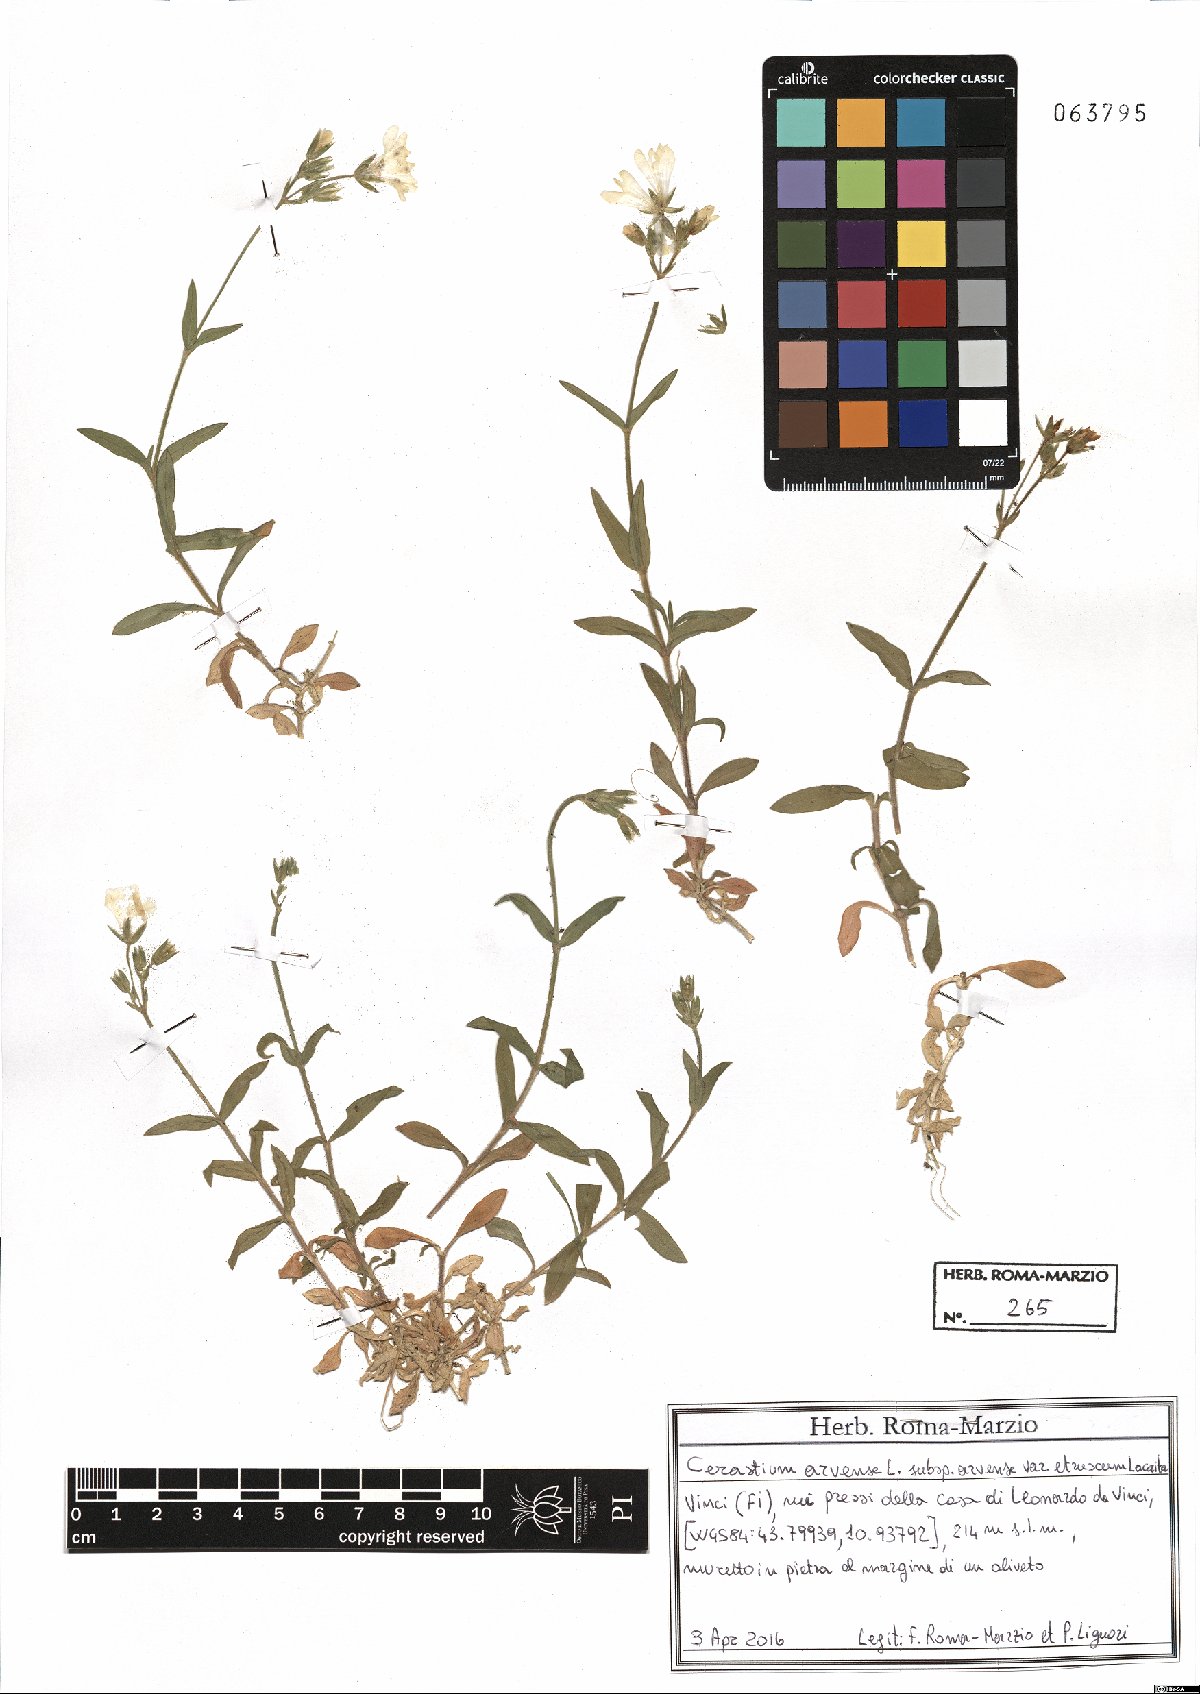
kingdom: Plantae
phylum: Tracheophyta
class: Magnoliopsida
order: Caryophyllales
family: Caryophyllaceae
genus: Cerastium
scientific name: Cerastium arvense
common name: Field mouse-ear
